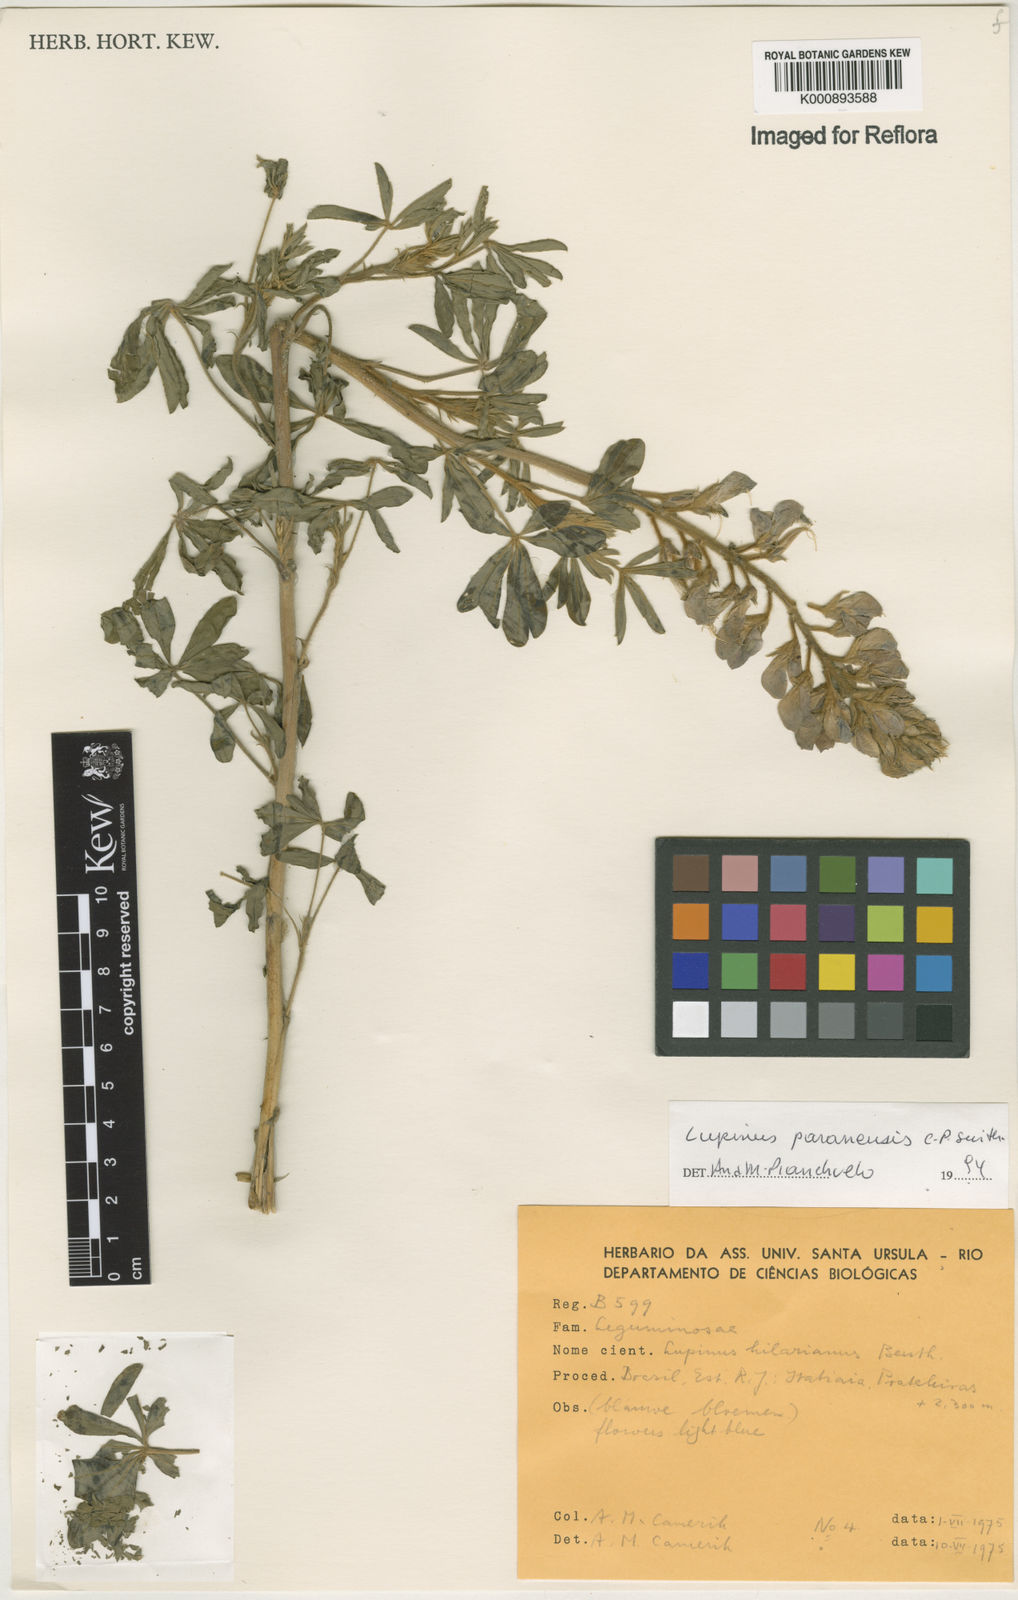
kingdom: Plantae
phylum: Tracheophyta
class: Magnoliopsida
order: Fabales
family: Fabaceae
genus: Lupinus
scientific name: Lupinus paranensis
